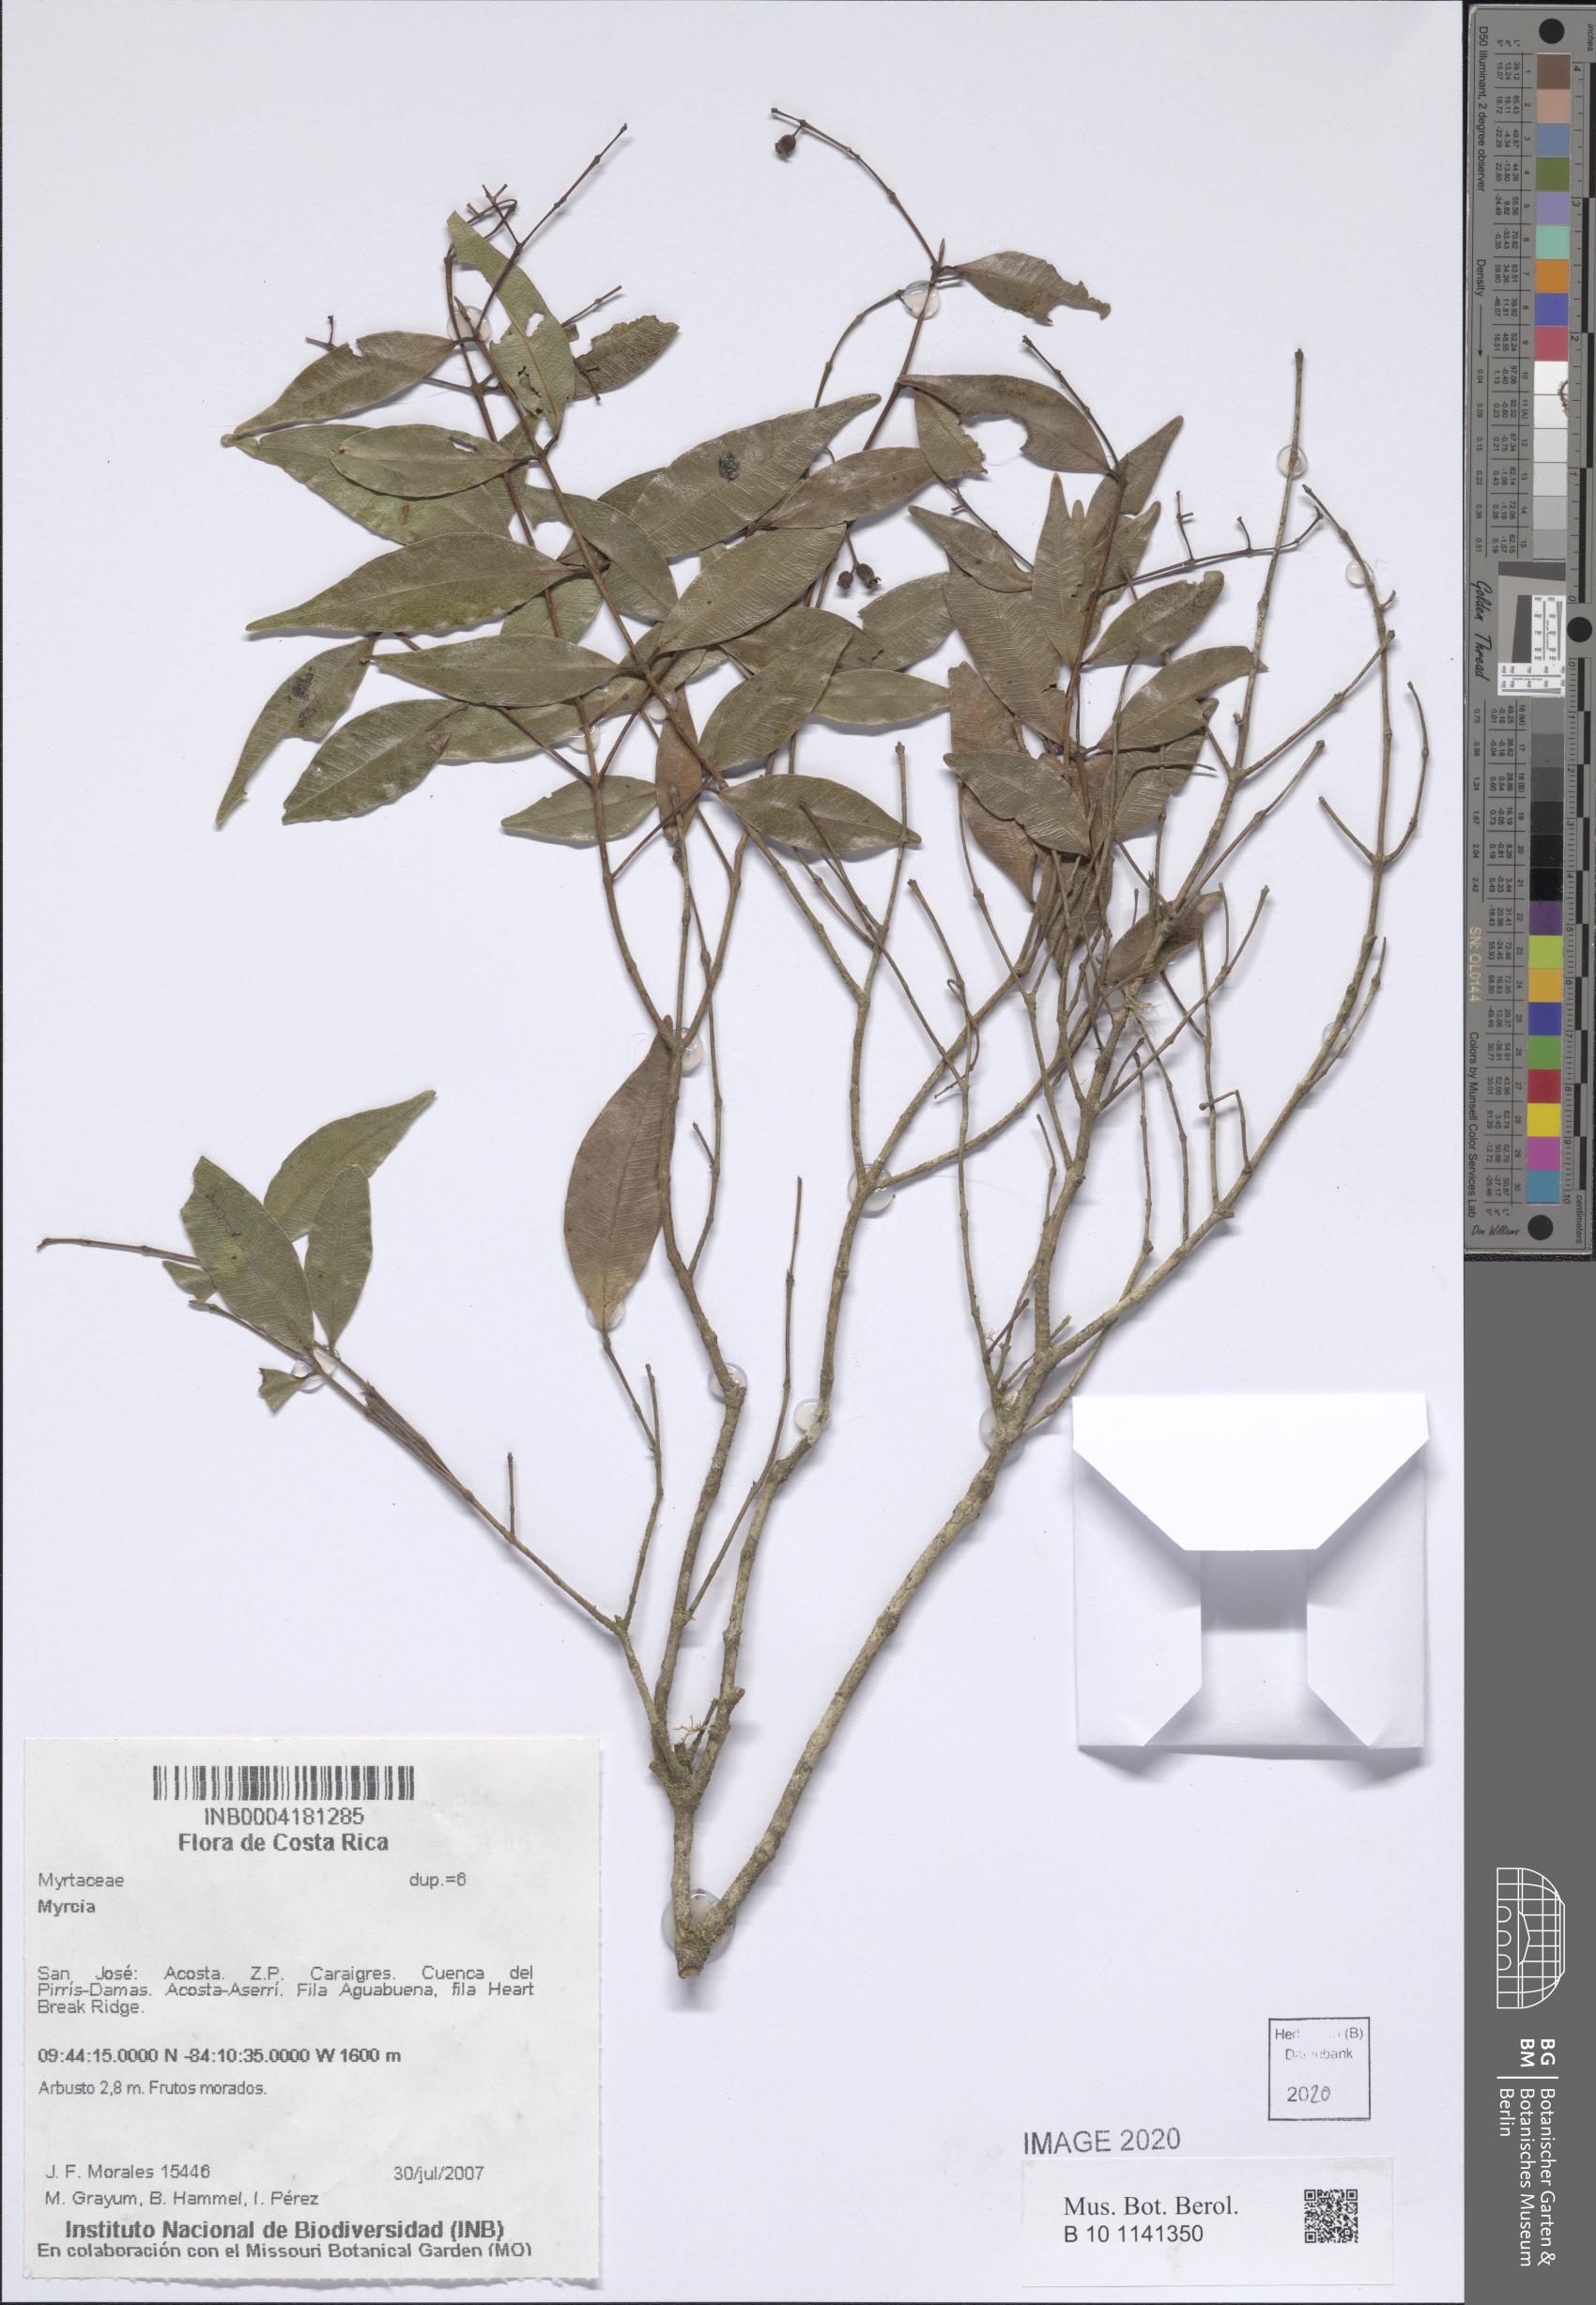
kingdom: Plantae
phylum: Tracheophyta
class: Magnoliopsida
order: Myrtales
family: Myrtaceae
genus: Myrcia
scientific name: Myrcia
